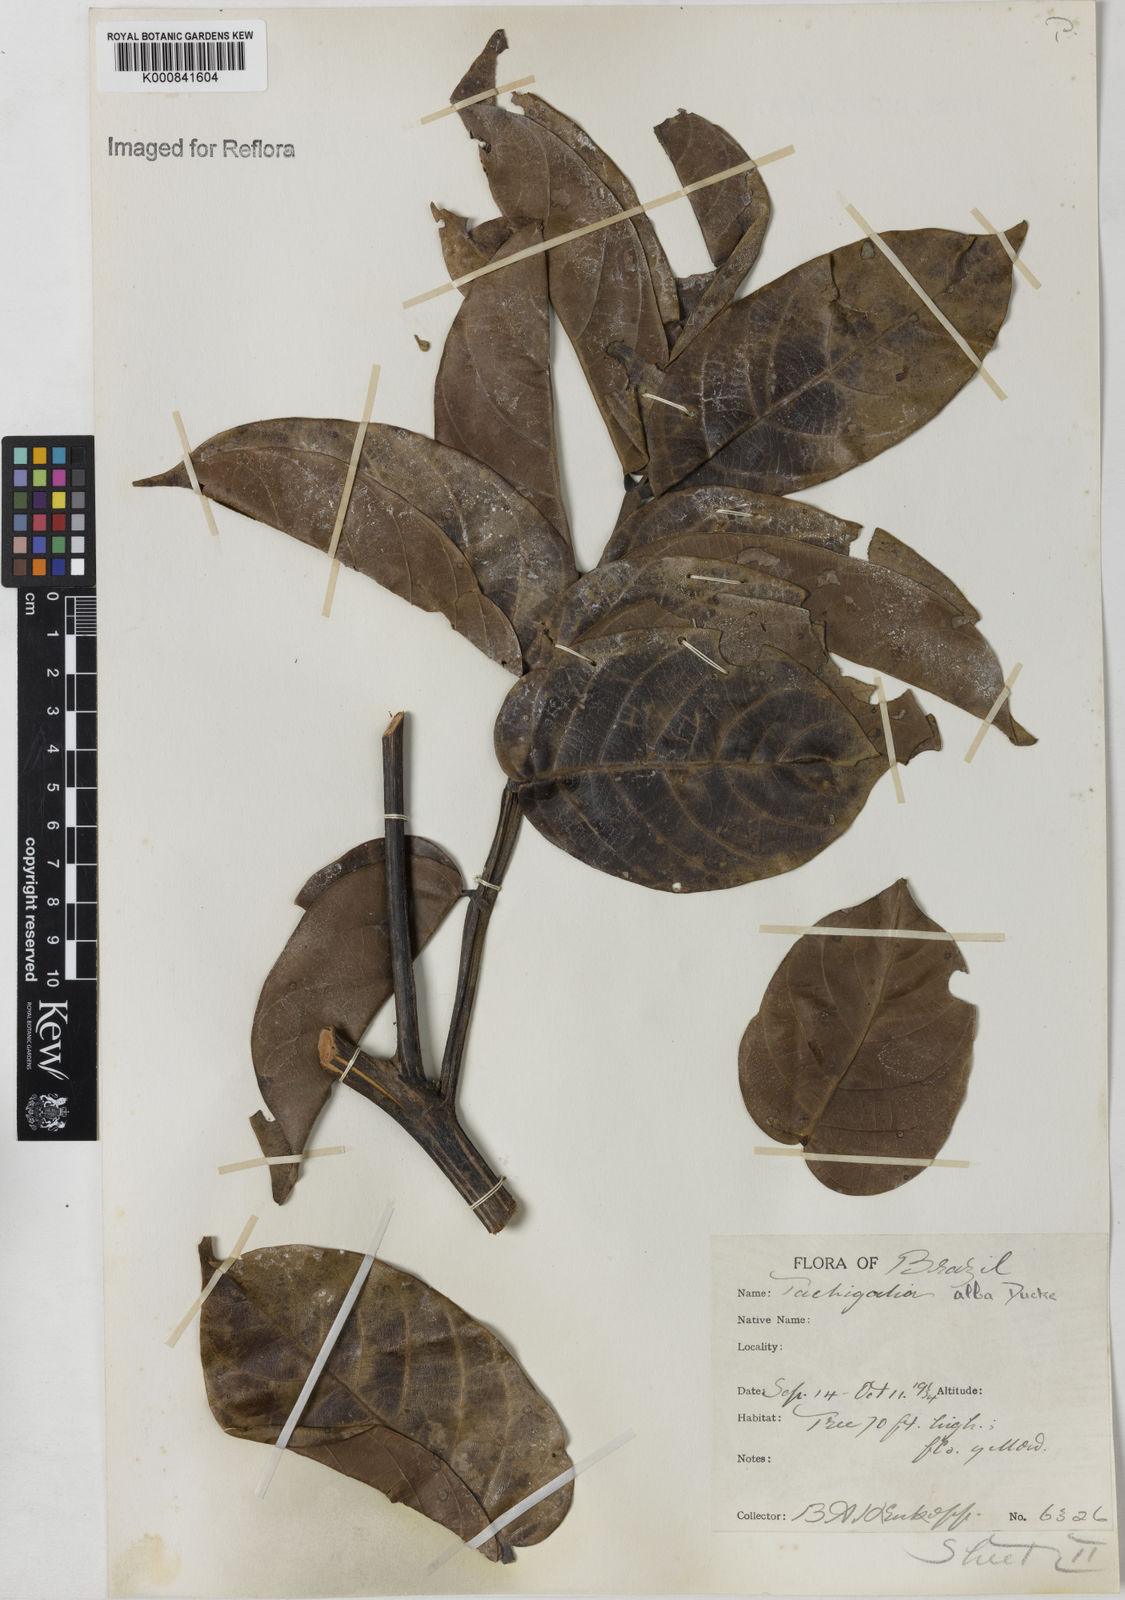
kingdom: Plantae
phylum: Tracheophyta
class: Magnoliopsida
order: Fabales
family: Fabaceae
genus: Tachigali
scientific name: Tachigali alba
